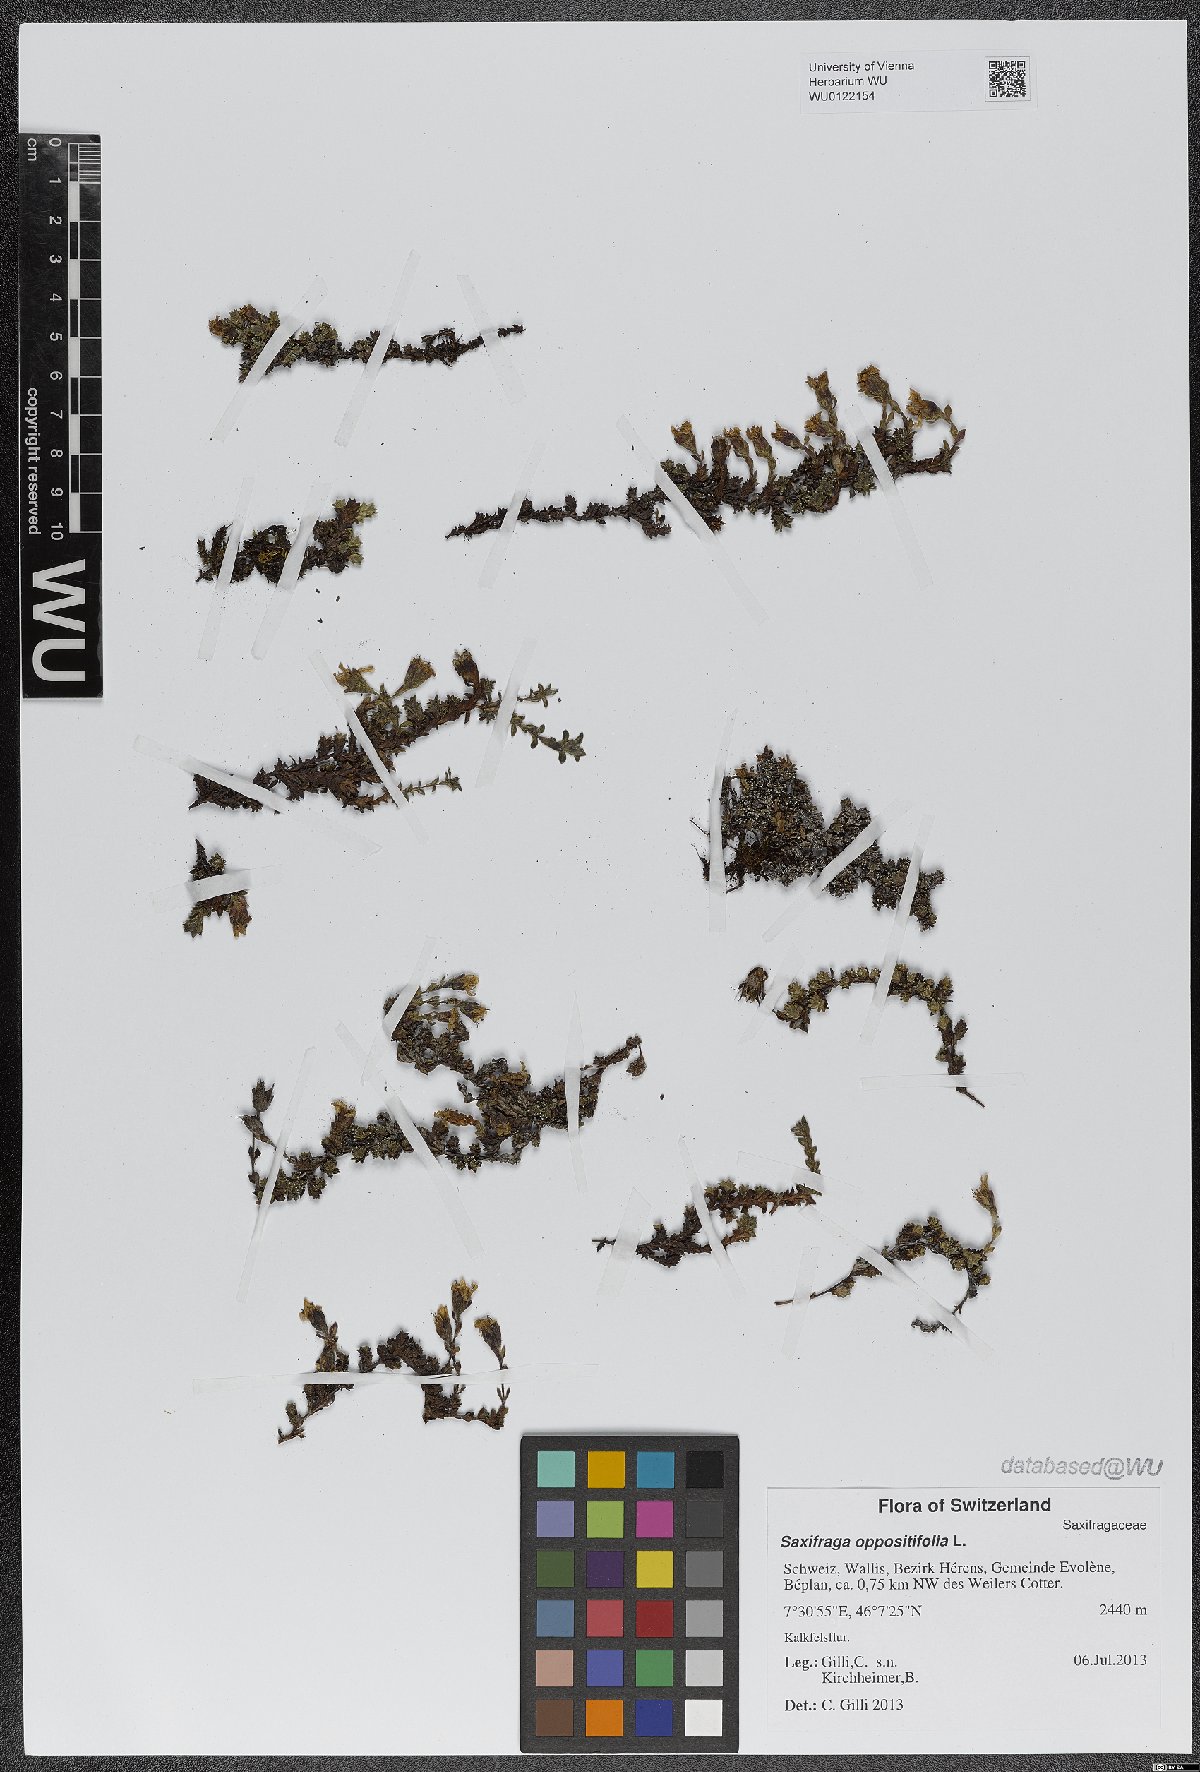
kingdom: Plantae
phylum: Tracheophyta
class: Magnoliopsida
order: Saxifragales
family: Saxifragaceae
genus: Saxifraga
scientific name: Saxifraga oppositifolia
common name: Purple saxifrage
